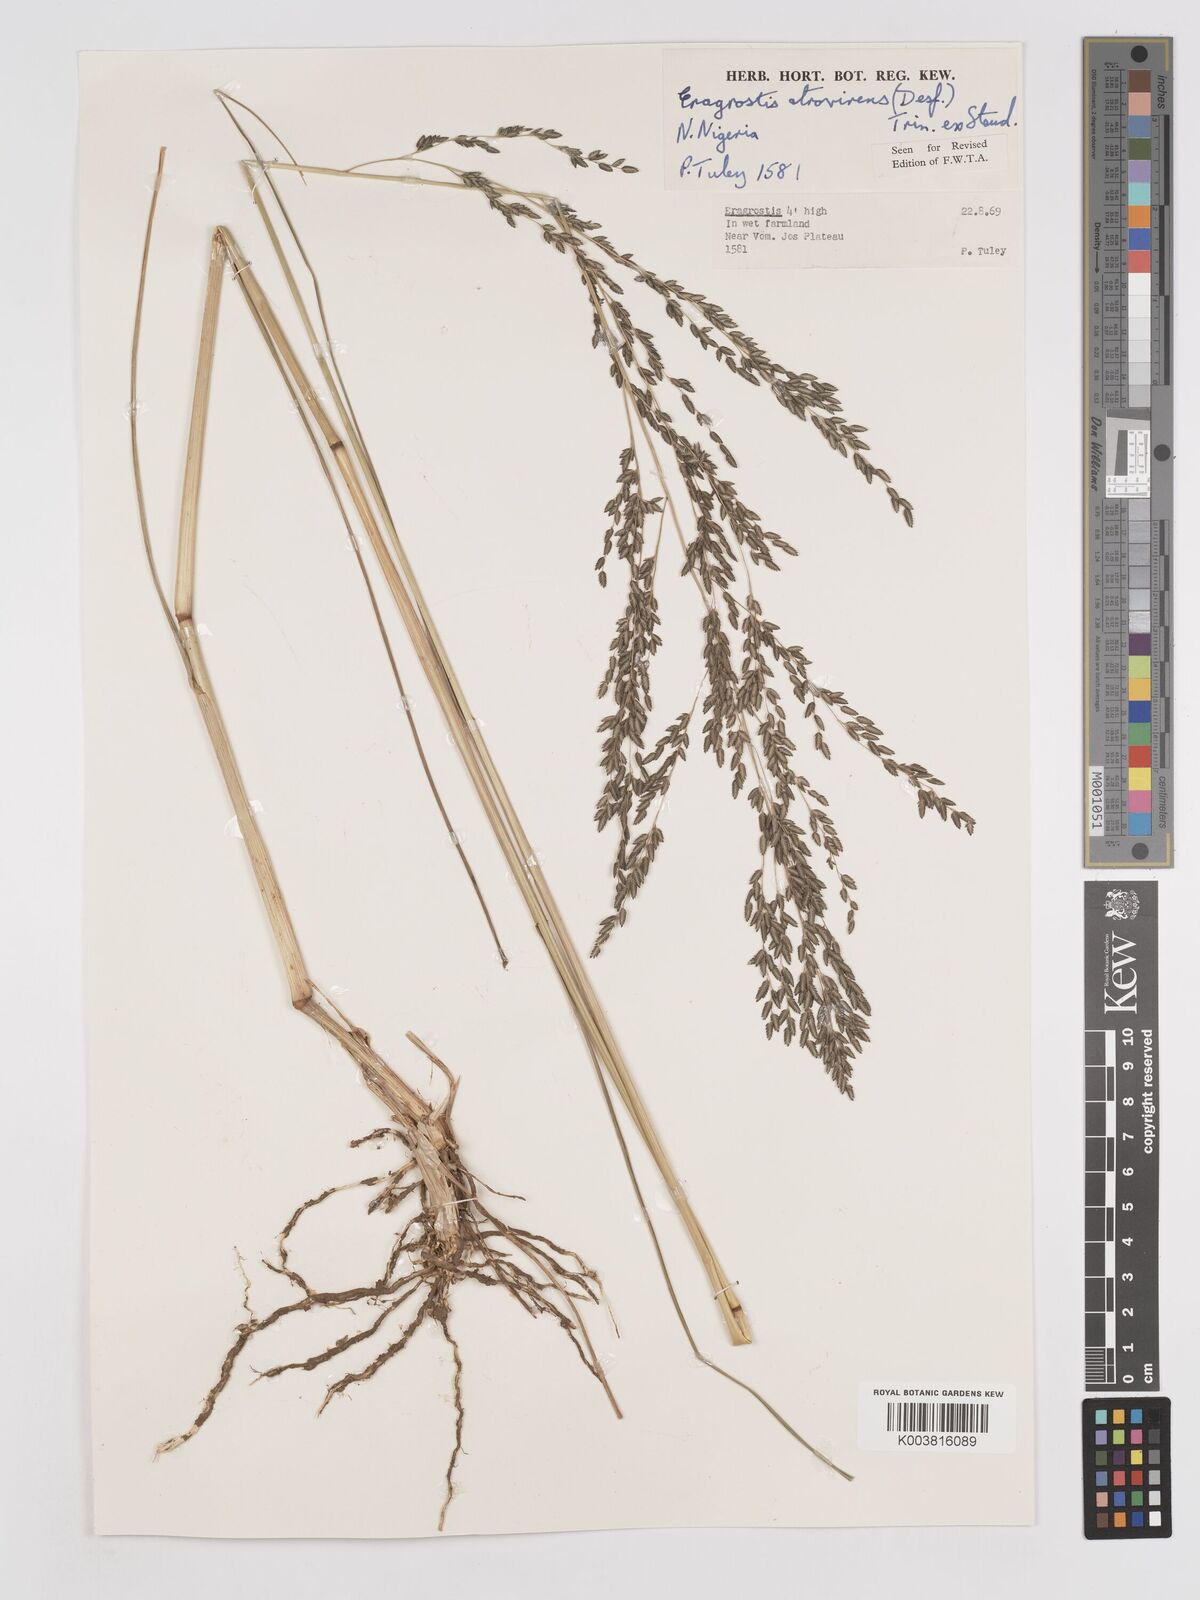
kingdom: Plantae
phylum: Tracheophyta
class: Liliopsida
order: Poales
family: Poaceae
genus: Eragrostis
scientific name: Eragrostis atrovirens
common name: Thalia lovegrass
